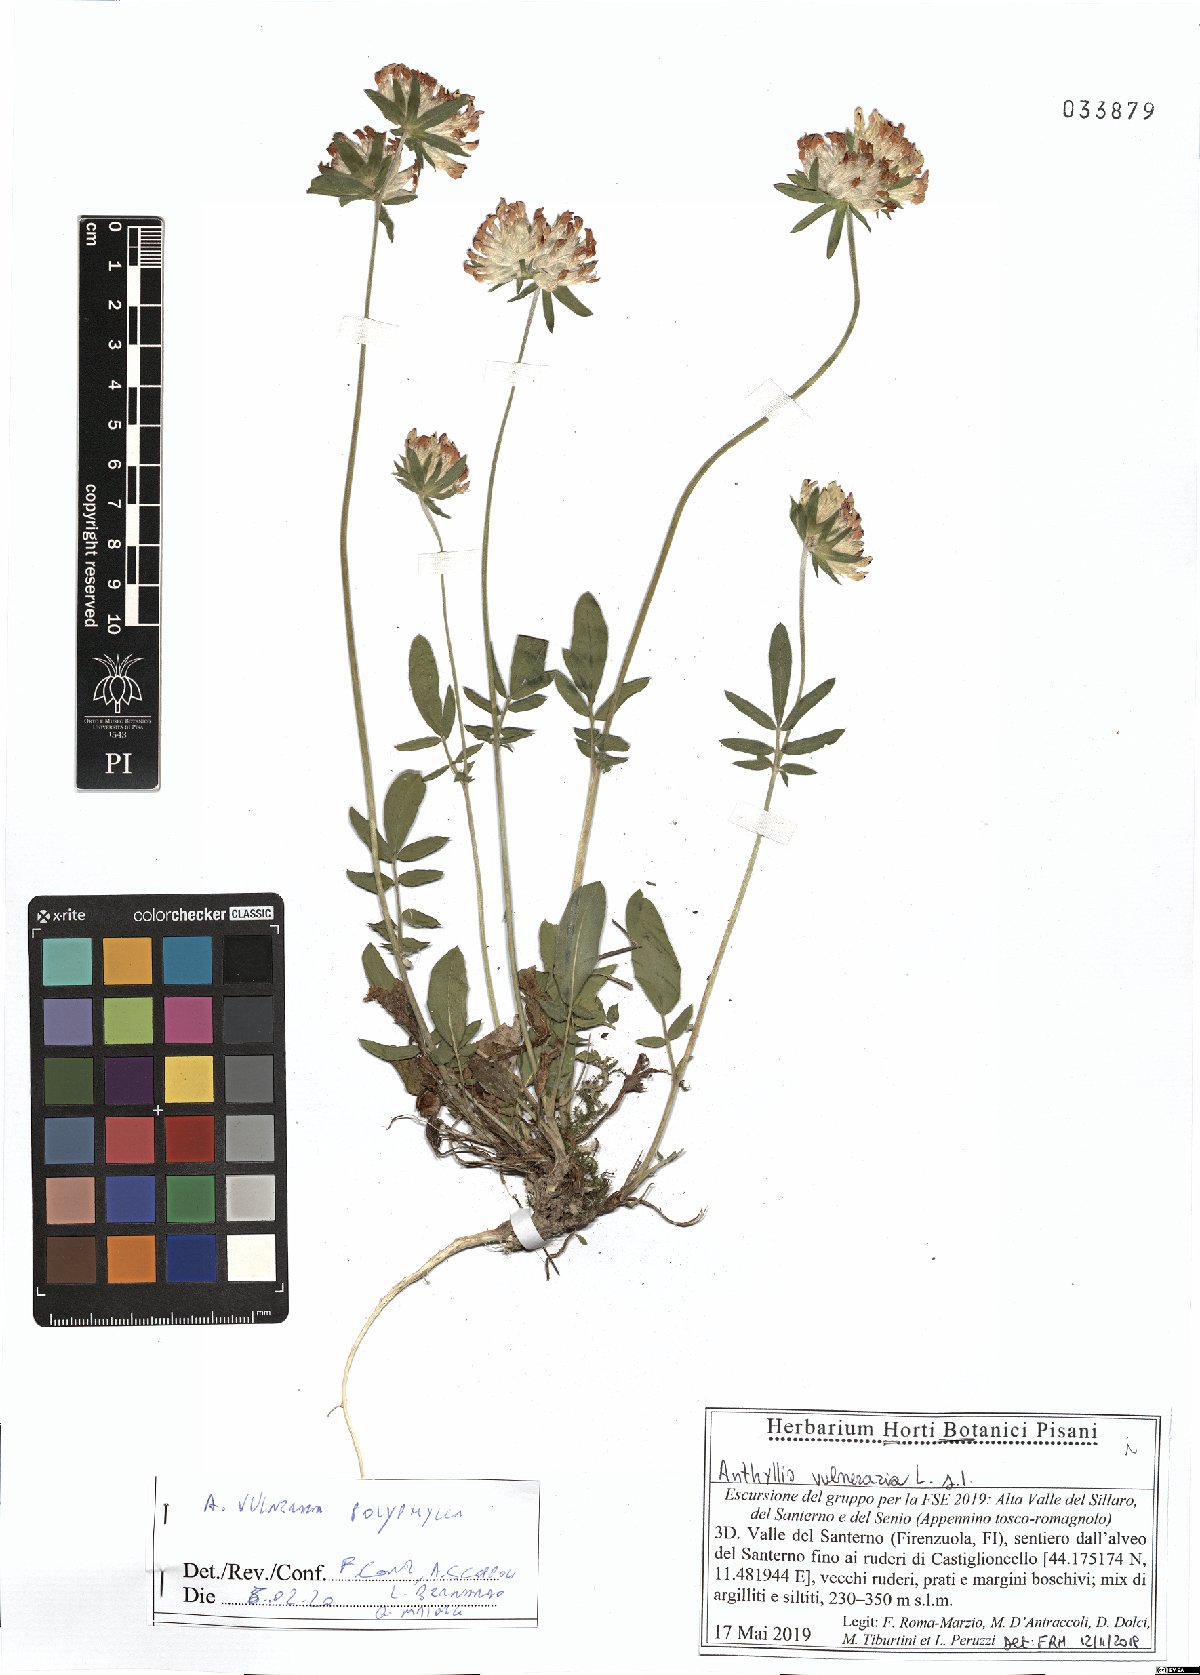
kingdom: Plantae
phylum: Tracheophyta
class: Magnoliopsida
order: Fabales
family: Fabaceae
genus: Anthyllis
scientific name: Anthyllis vulneraria
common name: Kidney vetch
